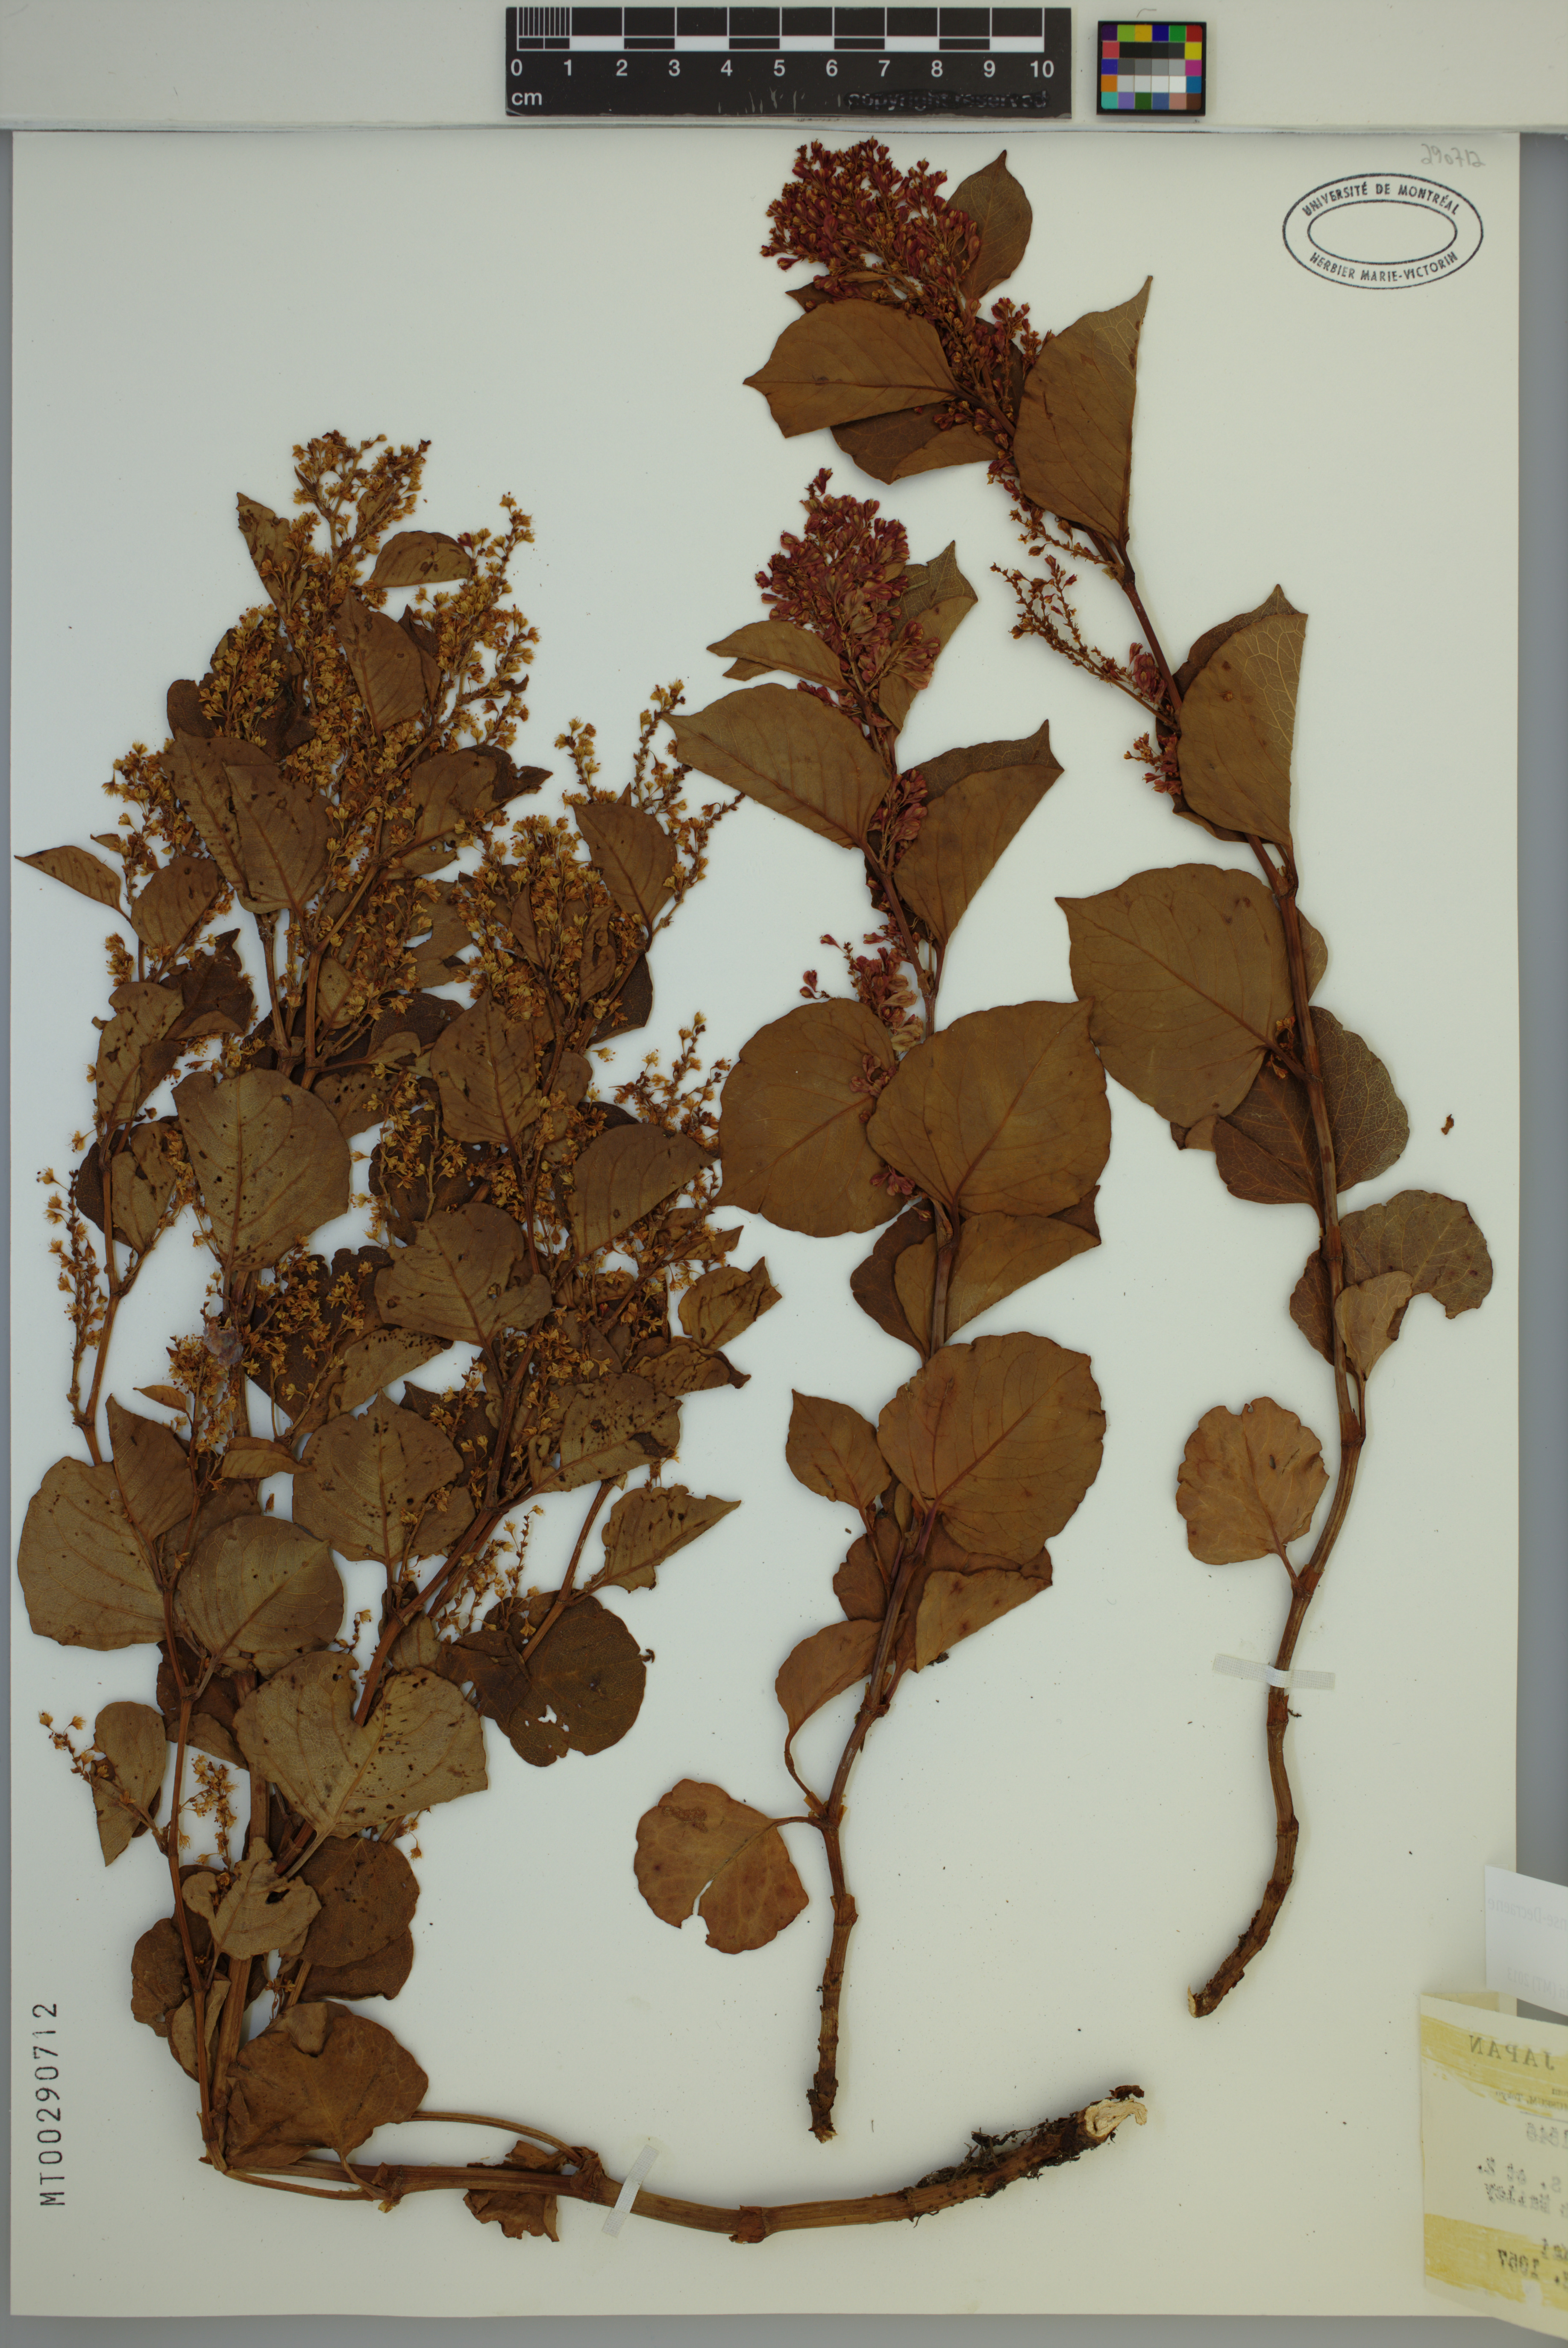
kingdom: Plantae
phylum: Tracheophyta
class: Magnoliopsida
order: Caryophyllales
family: Polygonaceae
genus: Reynoutria
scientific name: Reynoutria japonica
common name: Japanese knotweed
